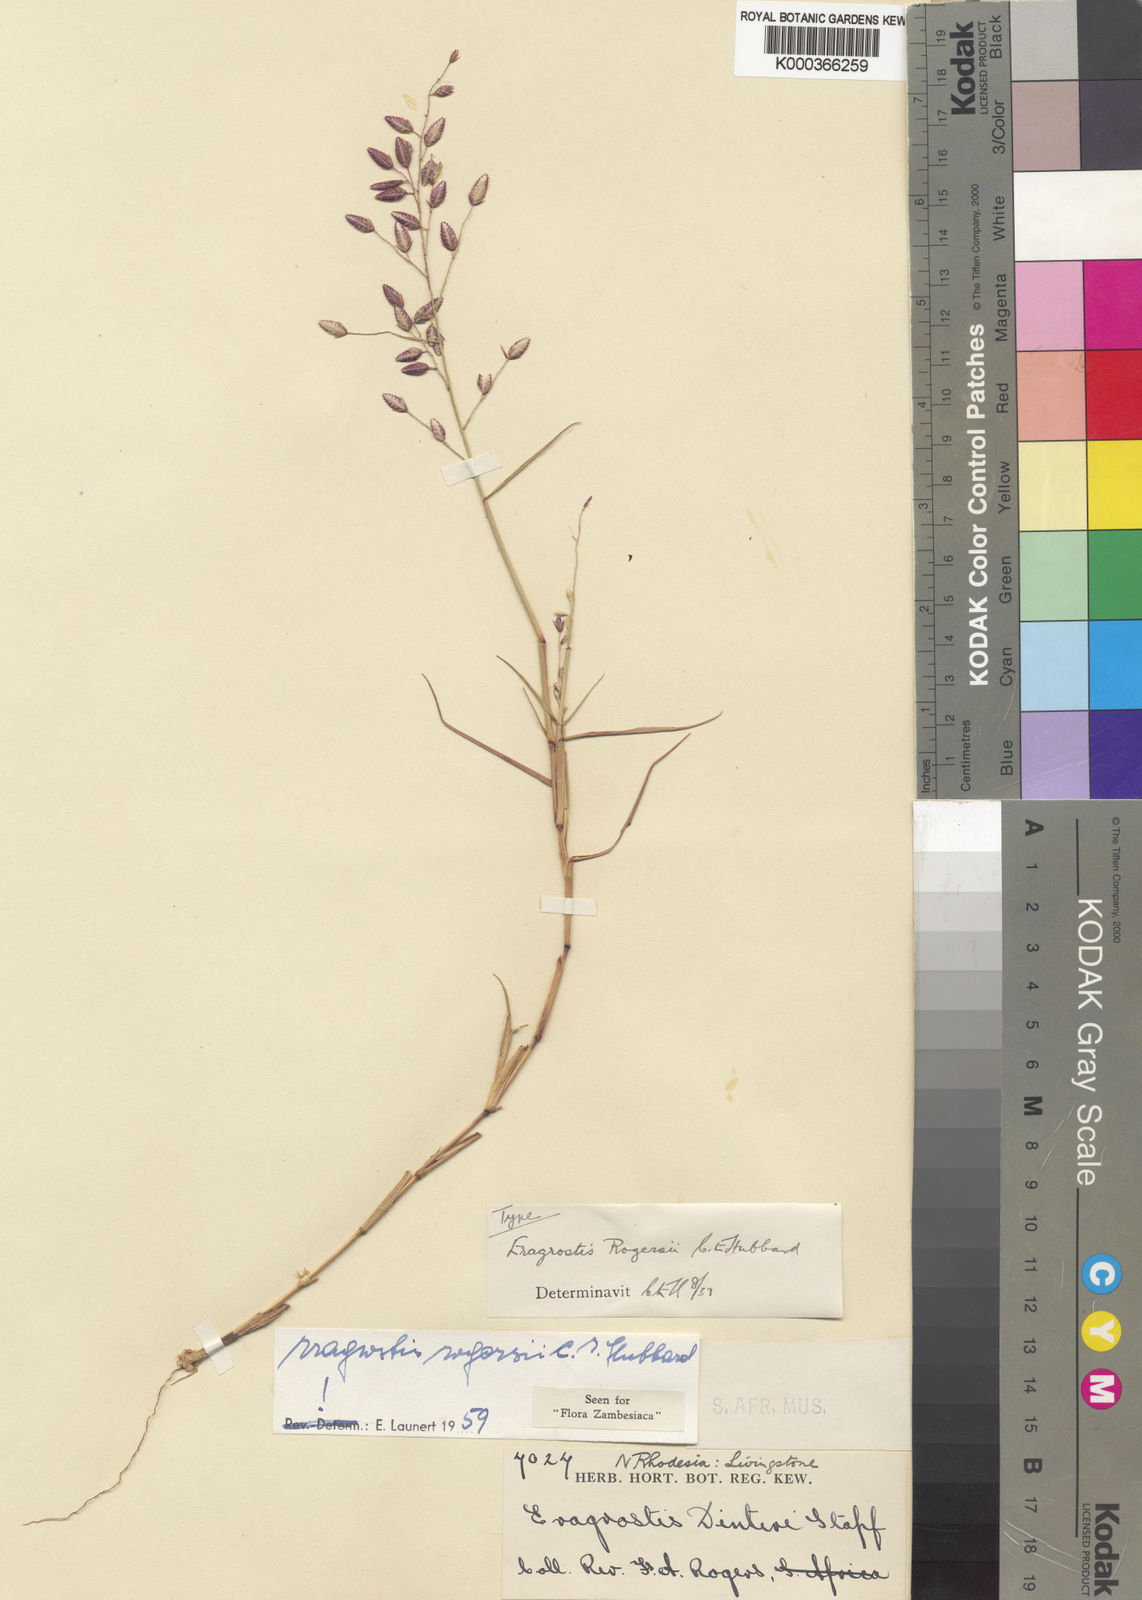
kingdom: Plantae
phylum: Tracheophyta
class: Liliopsida
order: Poales
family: Poaceae
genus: Eragrostis
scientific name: Eragrostis rogersii
